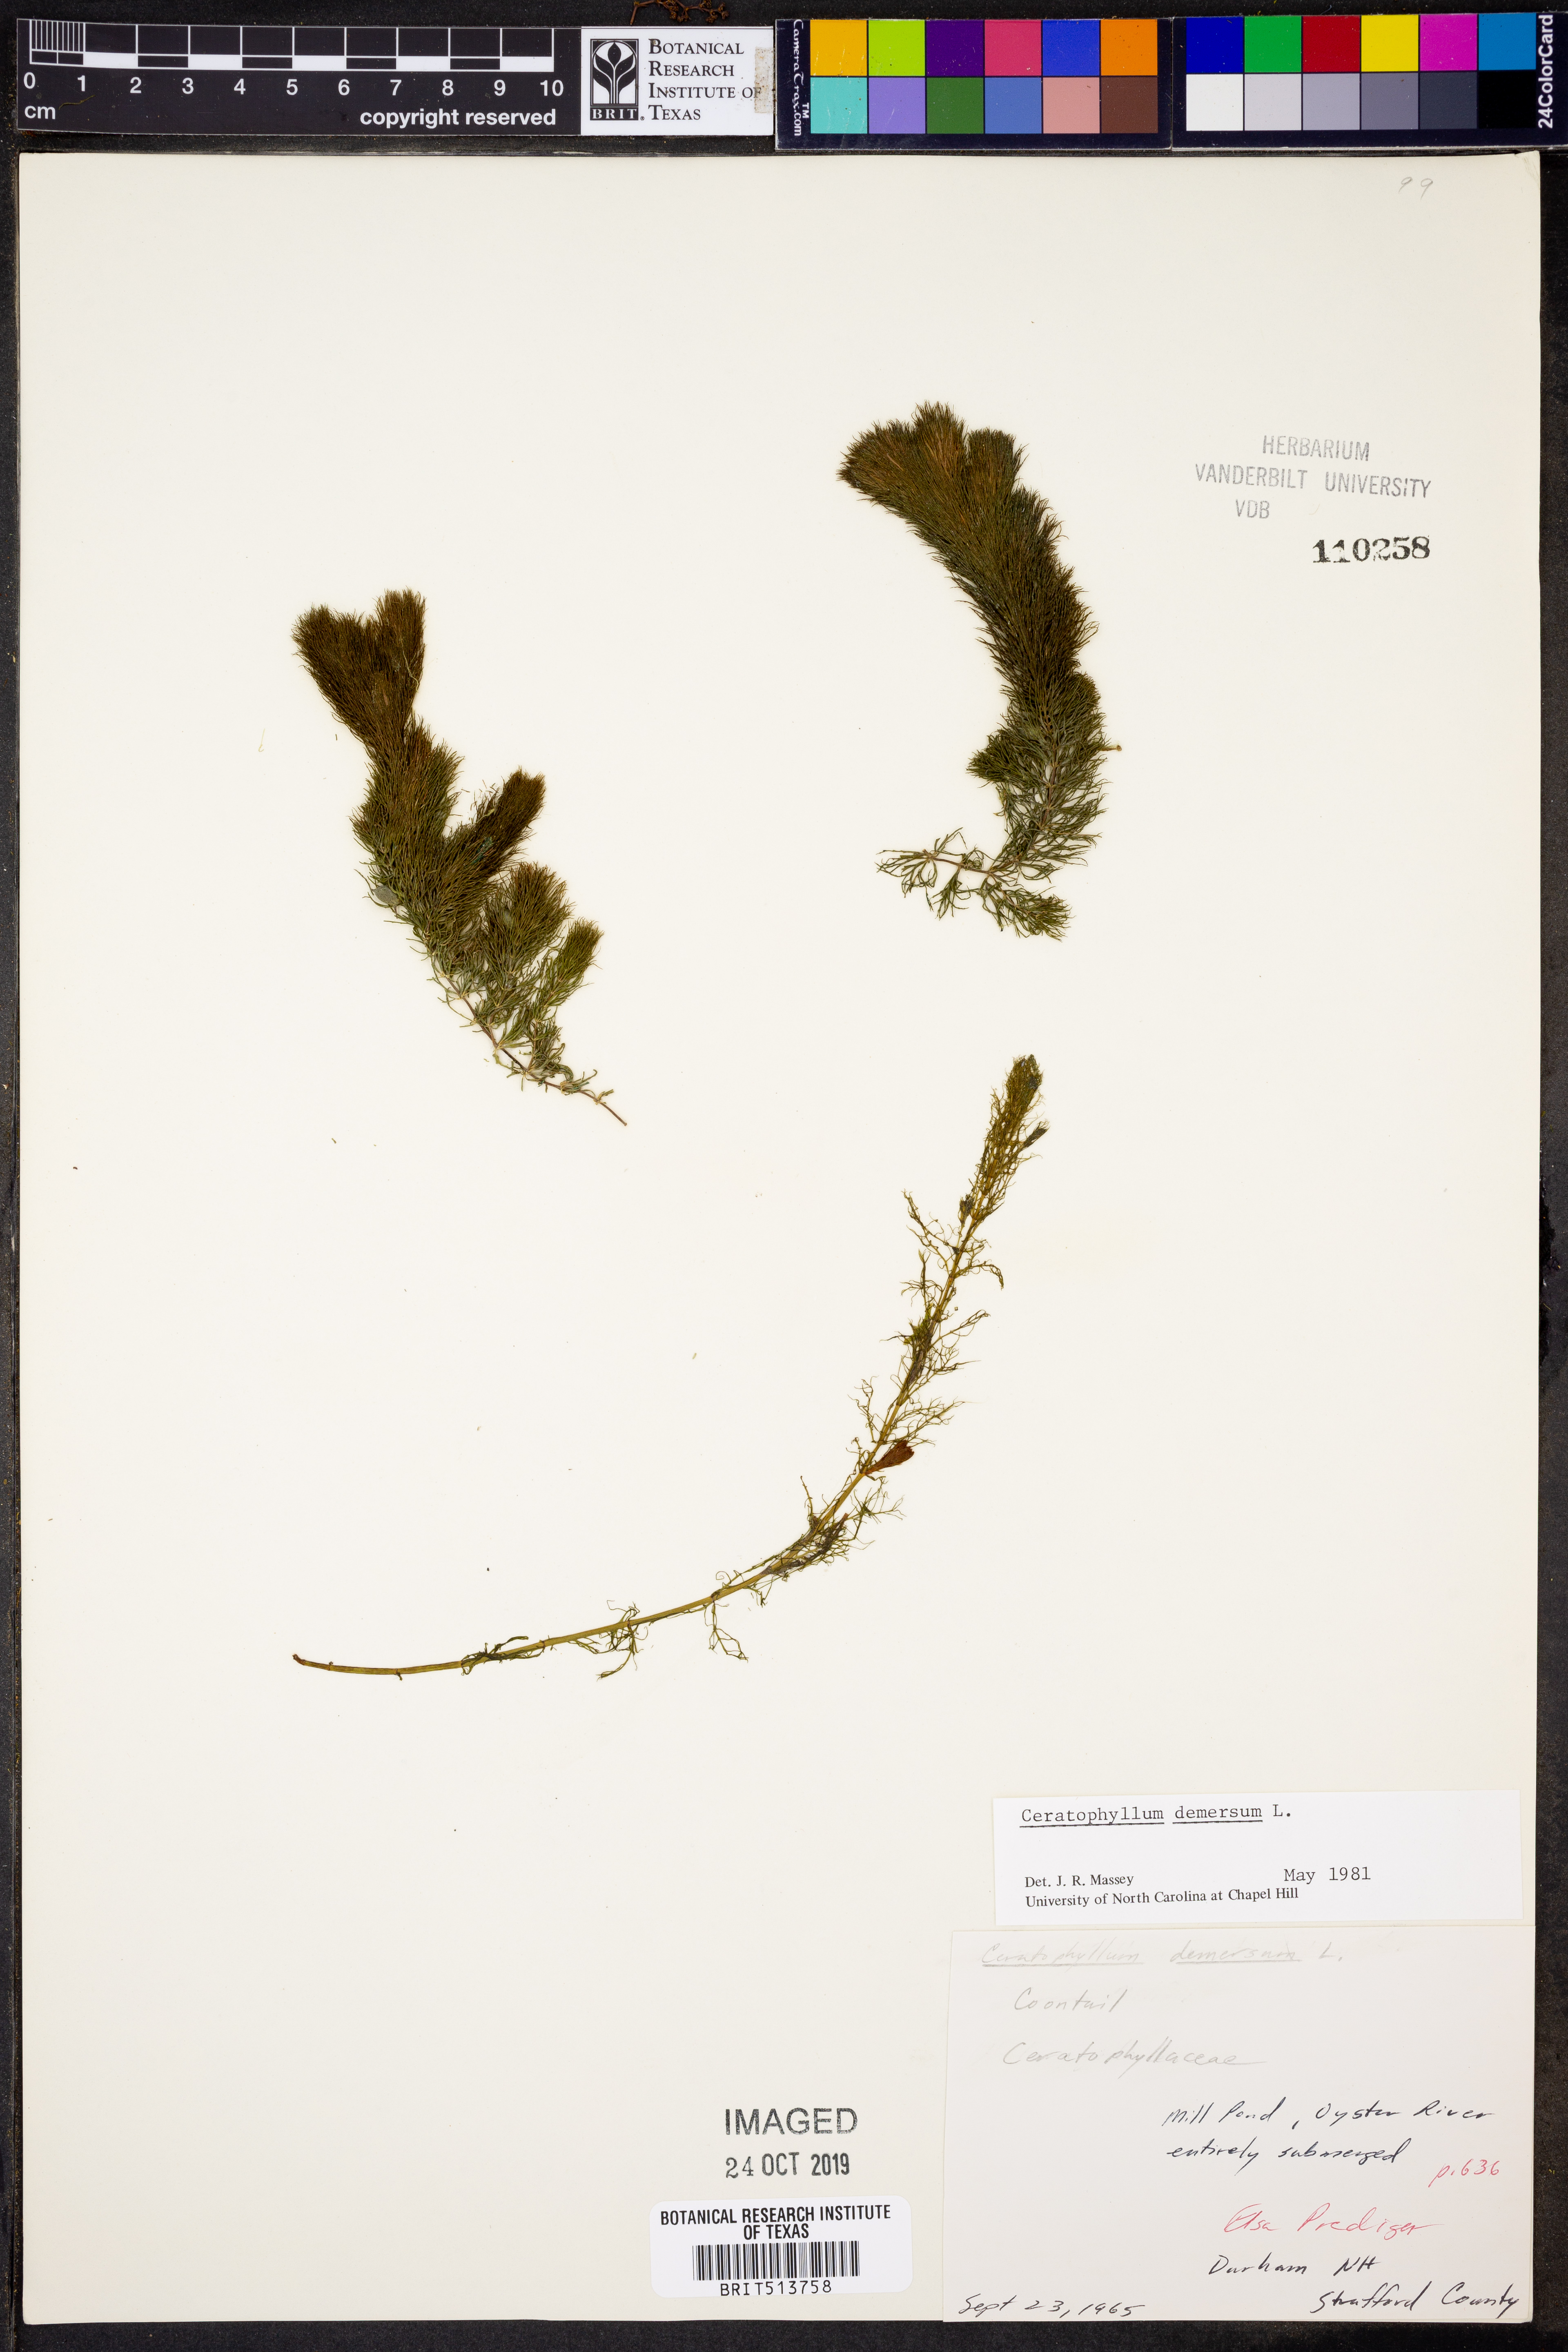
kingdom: Plantae
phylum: Tracheophyta
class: Magnoliopsida
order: Ceratophyllales
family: Ceratophyllaceae
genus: Ceratophyllum
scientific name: Ceratophyllum demersum
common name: Rigid hornwort
